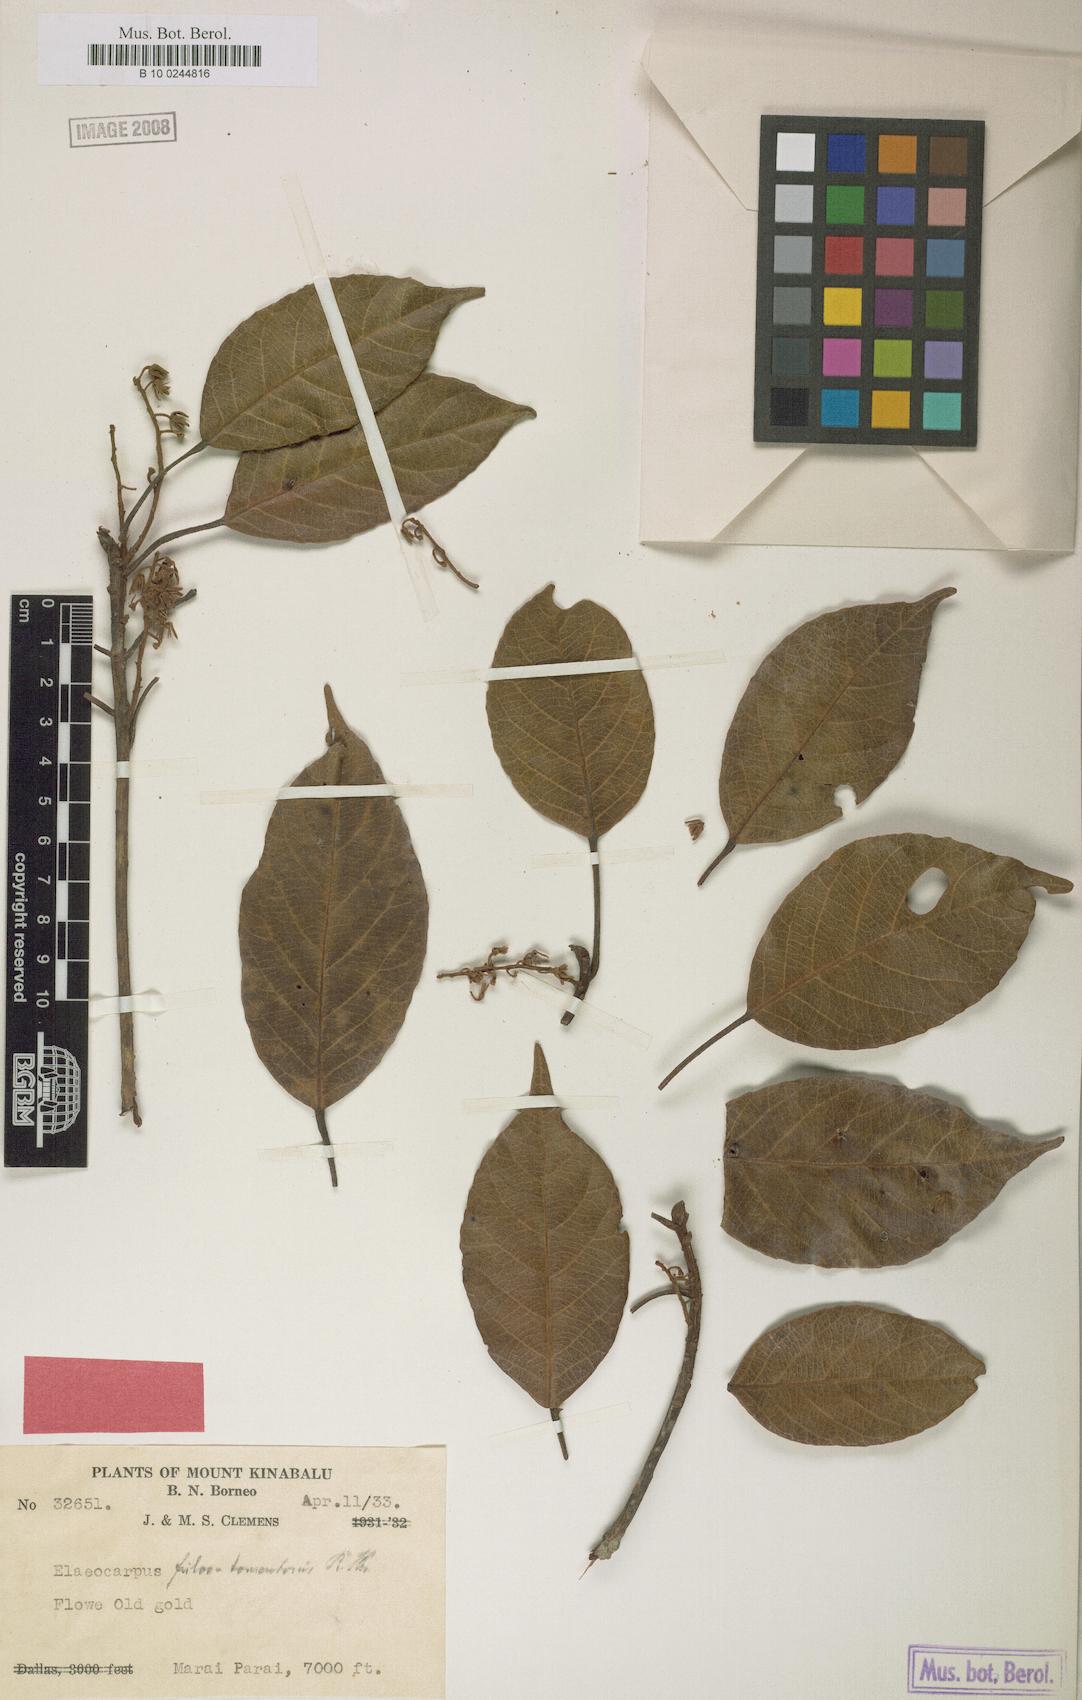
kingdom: Plantae
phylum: Tracheophyta
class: Magnoliopsida
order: Oxalidales
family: Elaeocarpaceae
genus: Elaeocarpus
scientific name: Elaeocarpus ferrugineus
